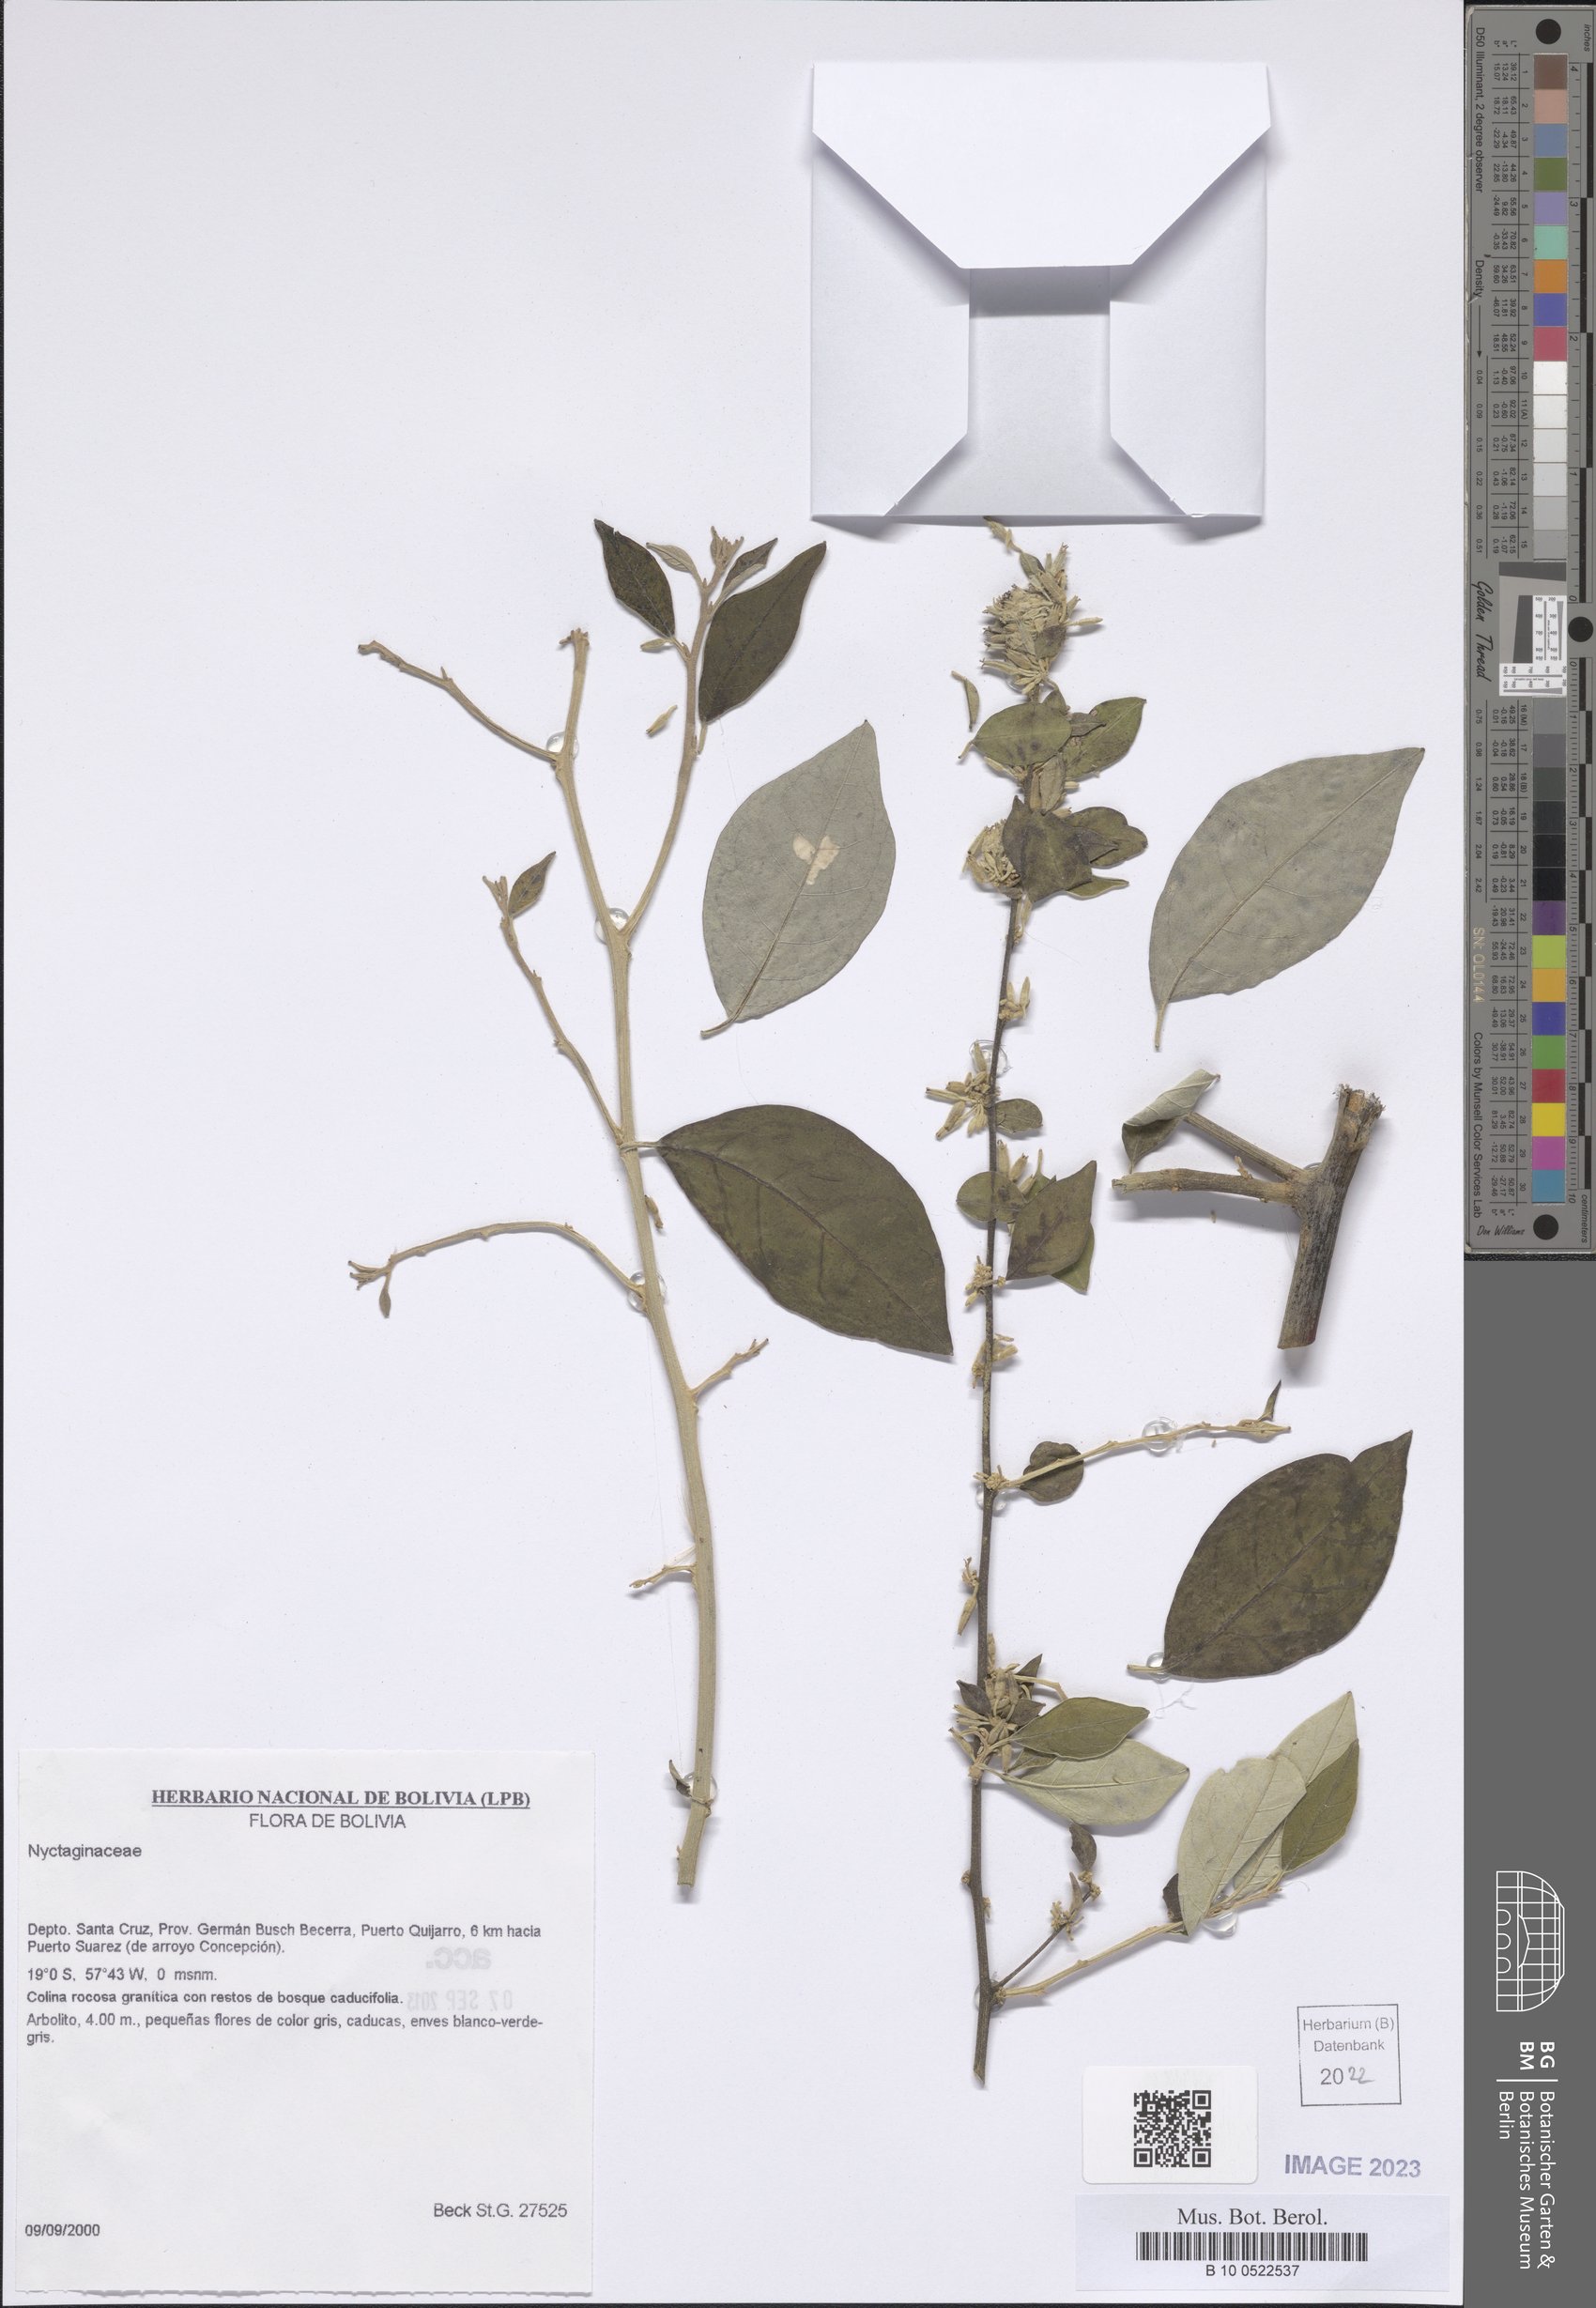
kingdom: Plantae
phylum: Tracheophyta
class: Magnoliopsida
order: Caryophyllales
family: Nyctaginaceae
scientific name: Nyctaginaceae
